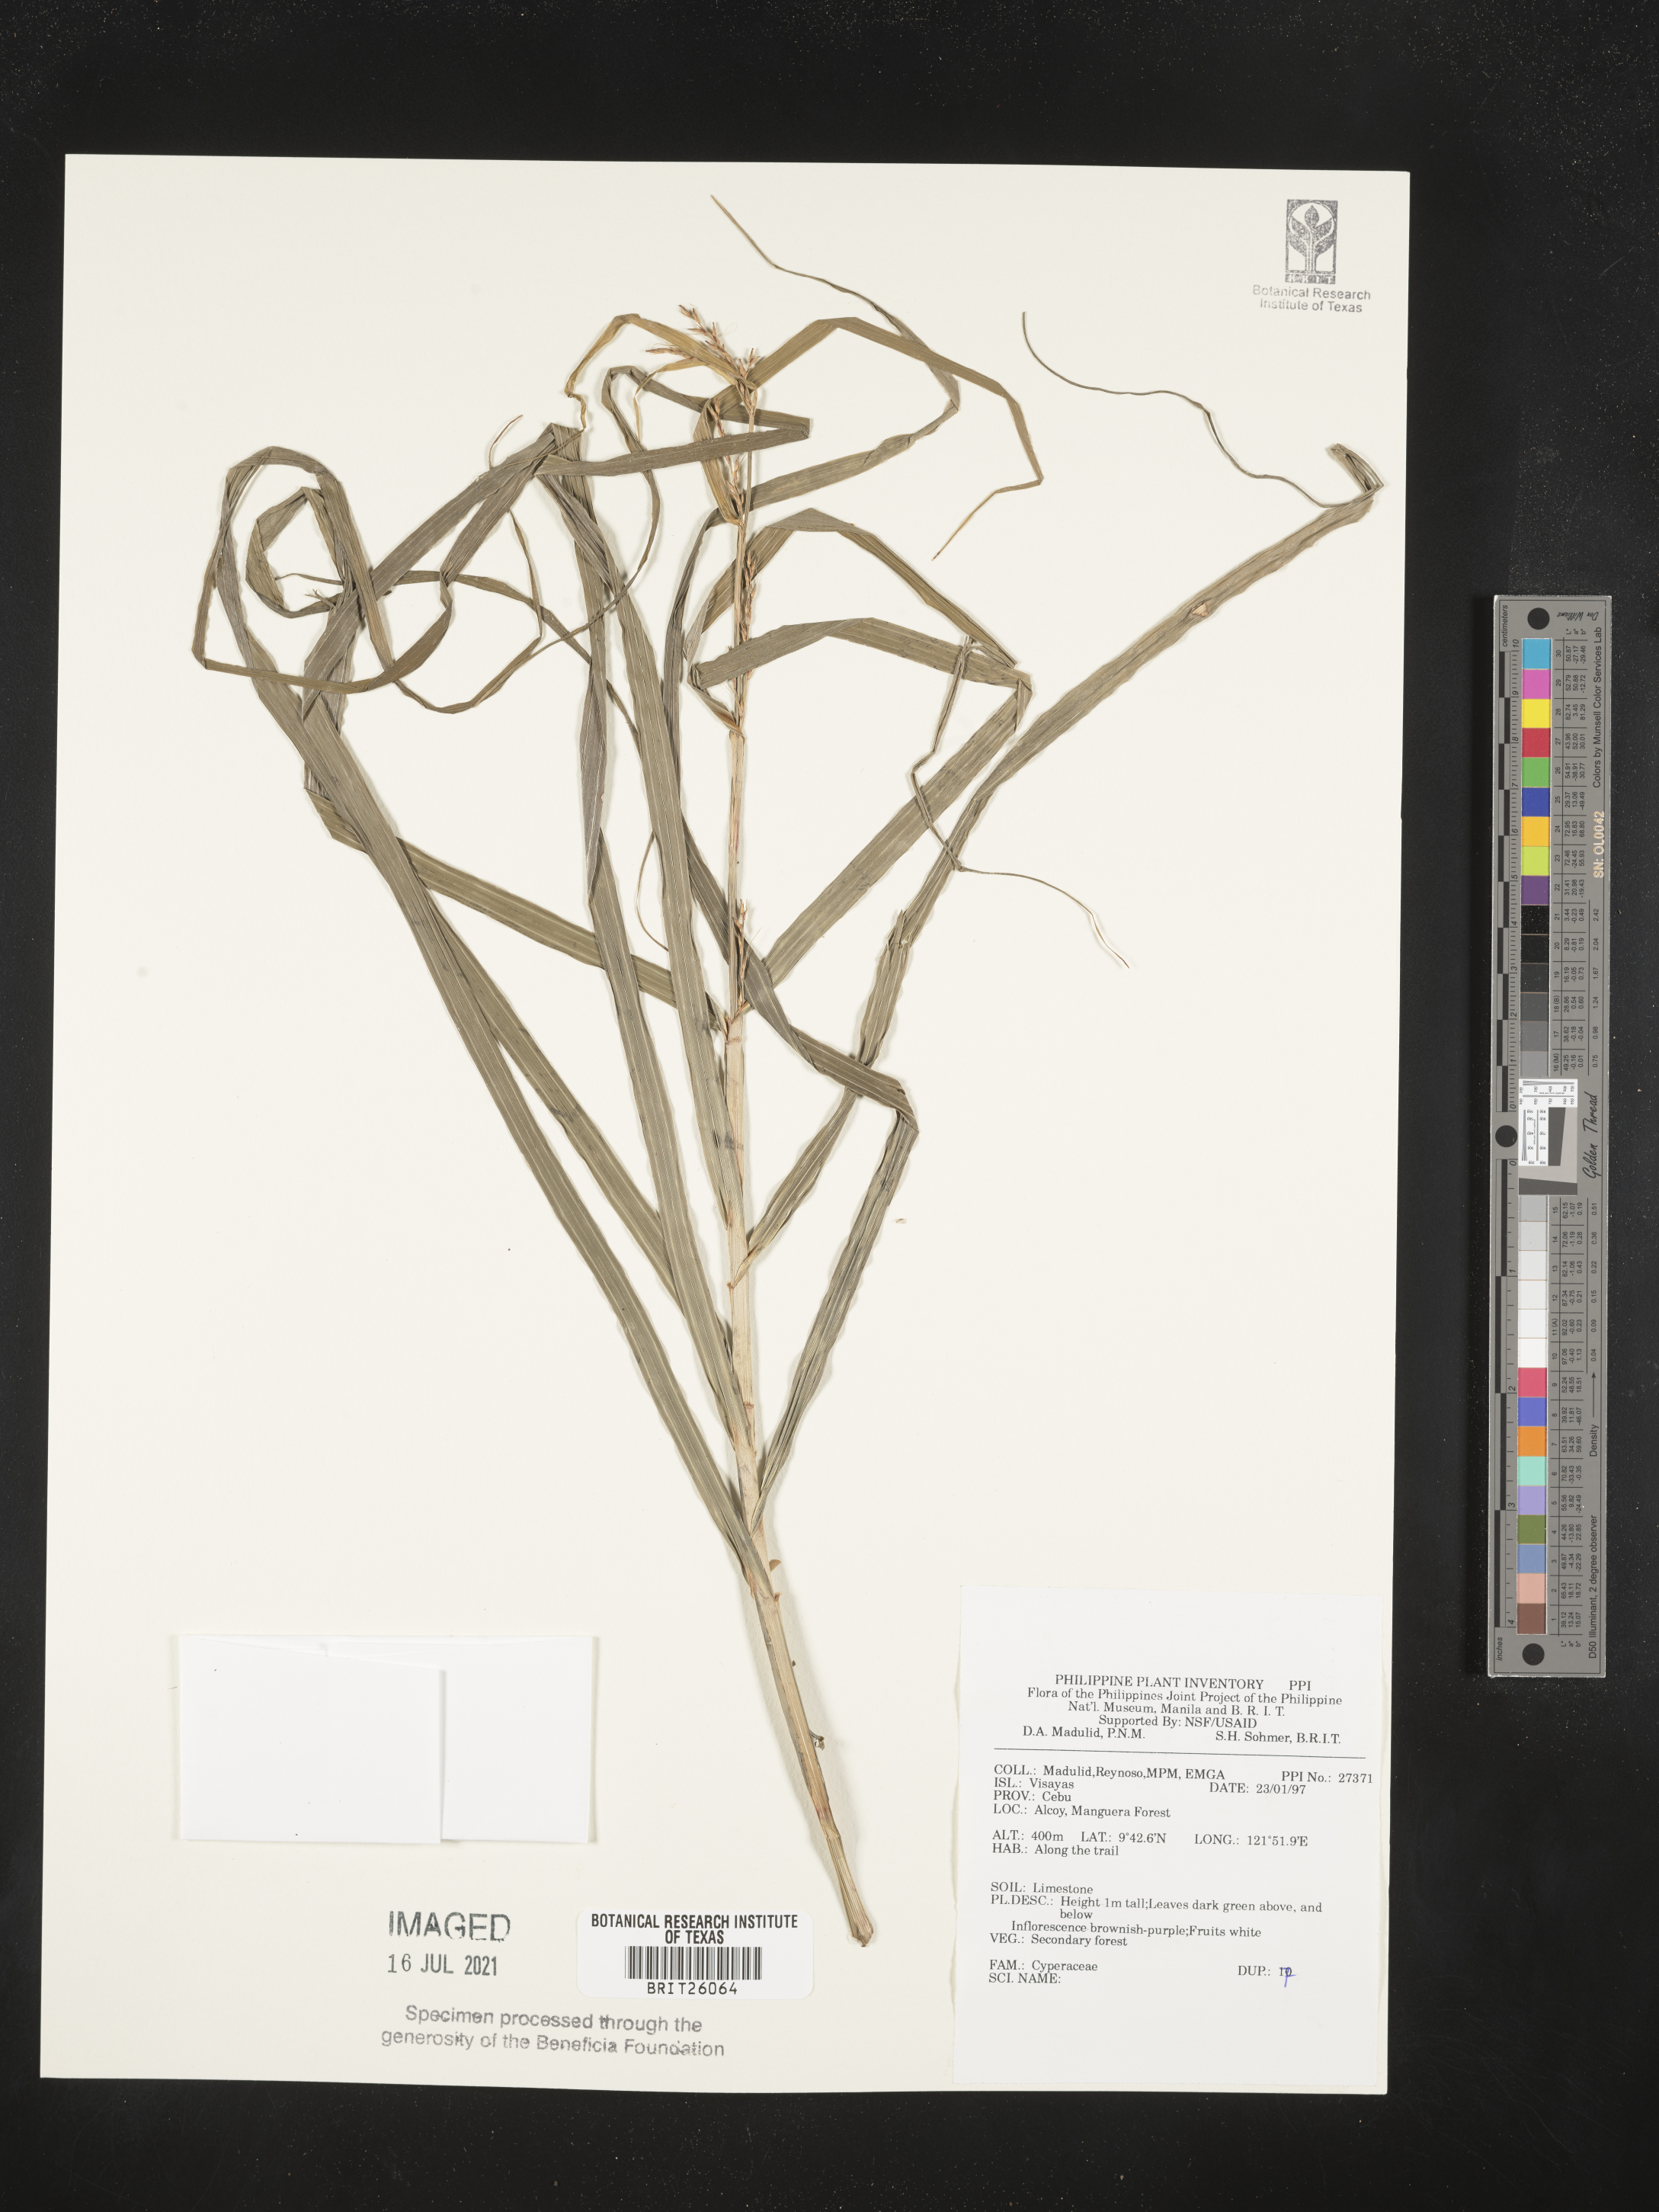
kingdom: Plantae
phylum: Tracheophyta
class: Liliopsida
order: Poales
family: Cyperaceae
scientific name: Cyperaceae
